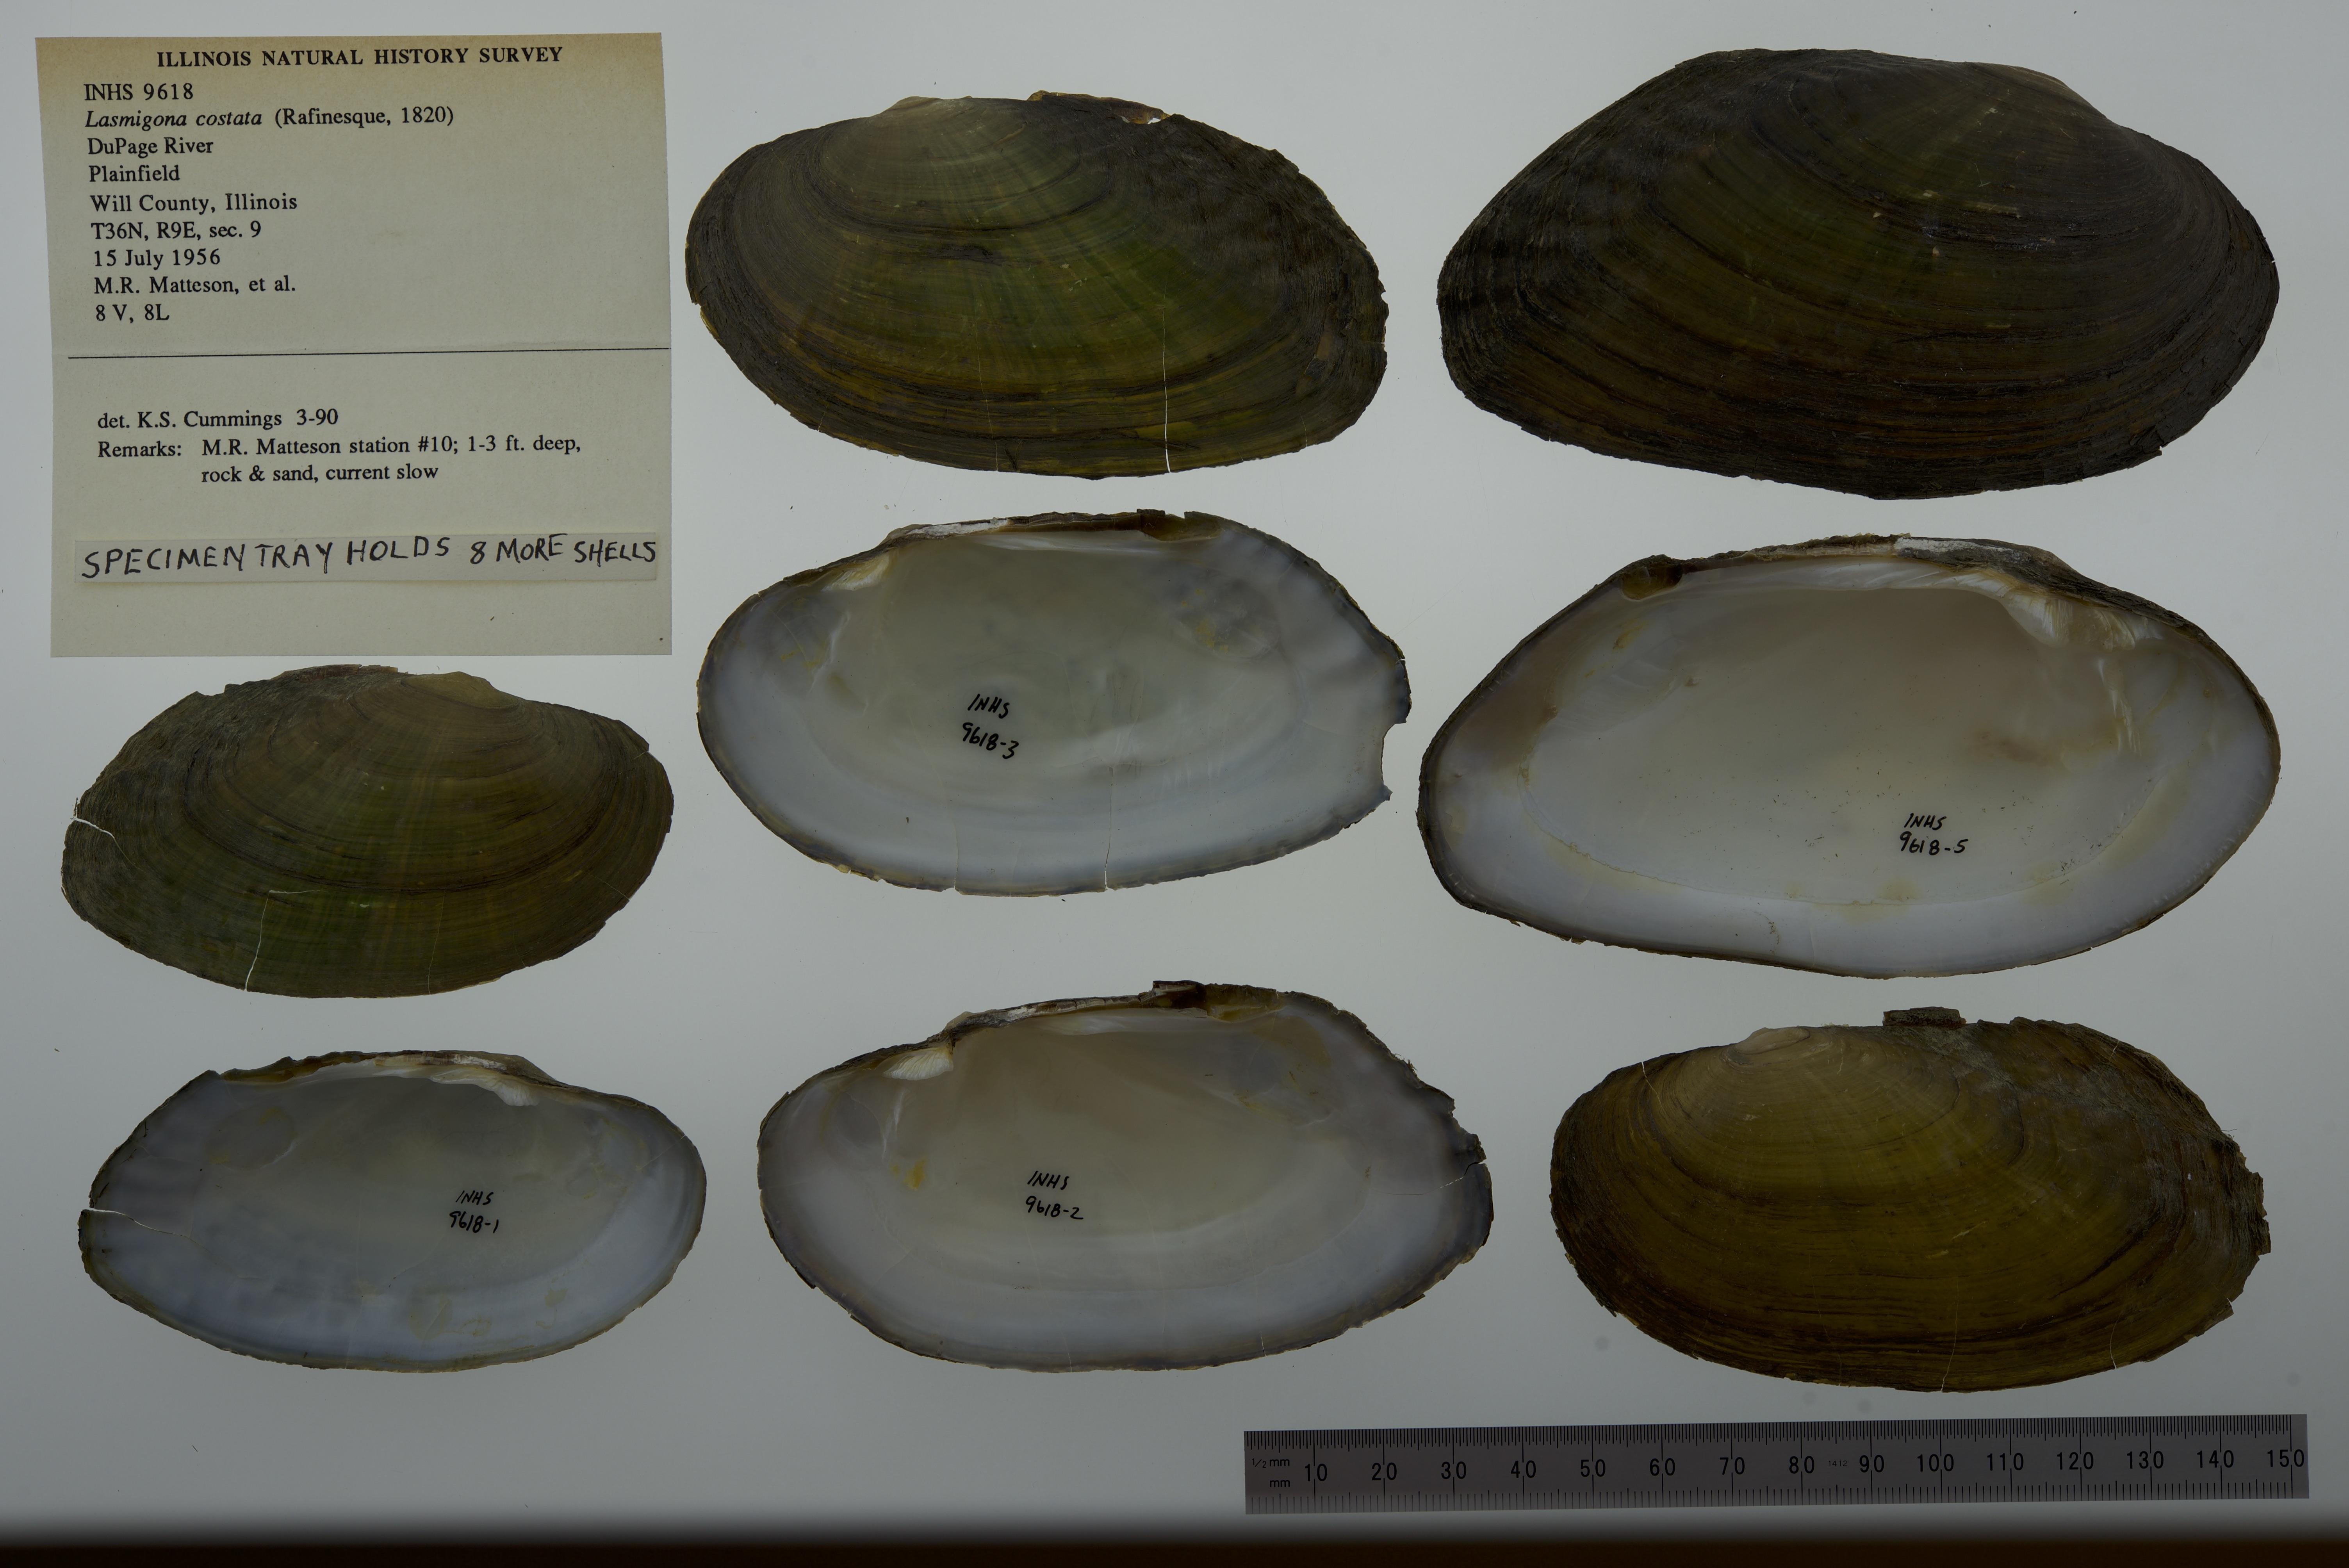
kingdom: Animalia
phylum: Mollusca
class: Bivalvia
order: Unionida
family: Unionidae
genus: Lasmigona
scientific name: Lasmigona costata
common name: Flutedshell
